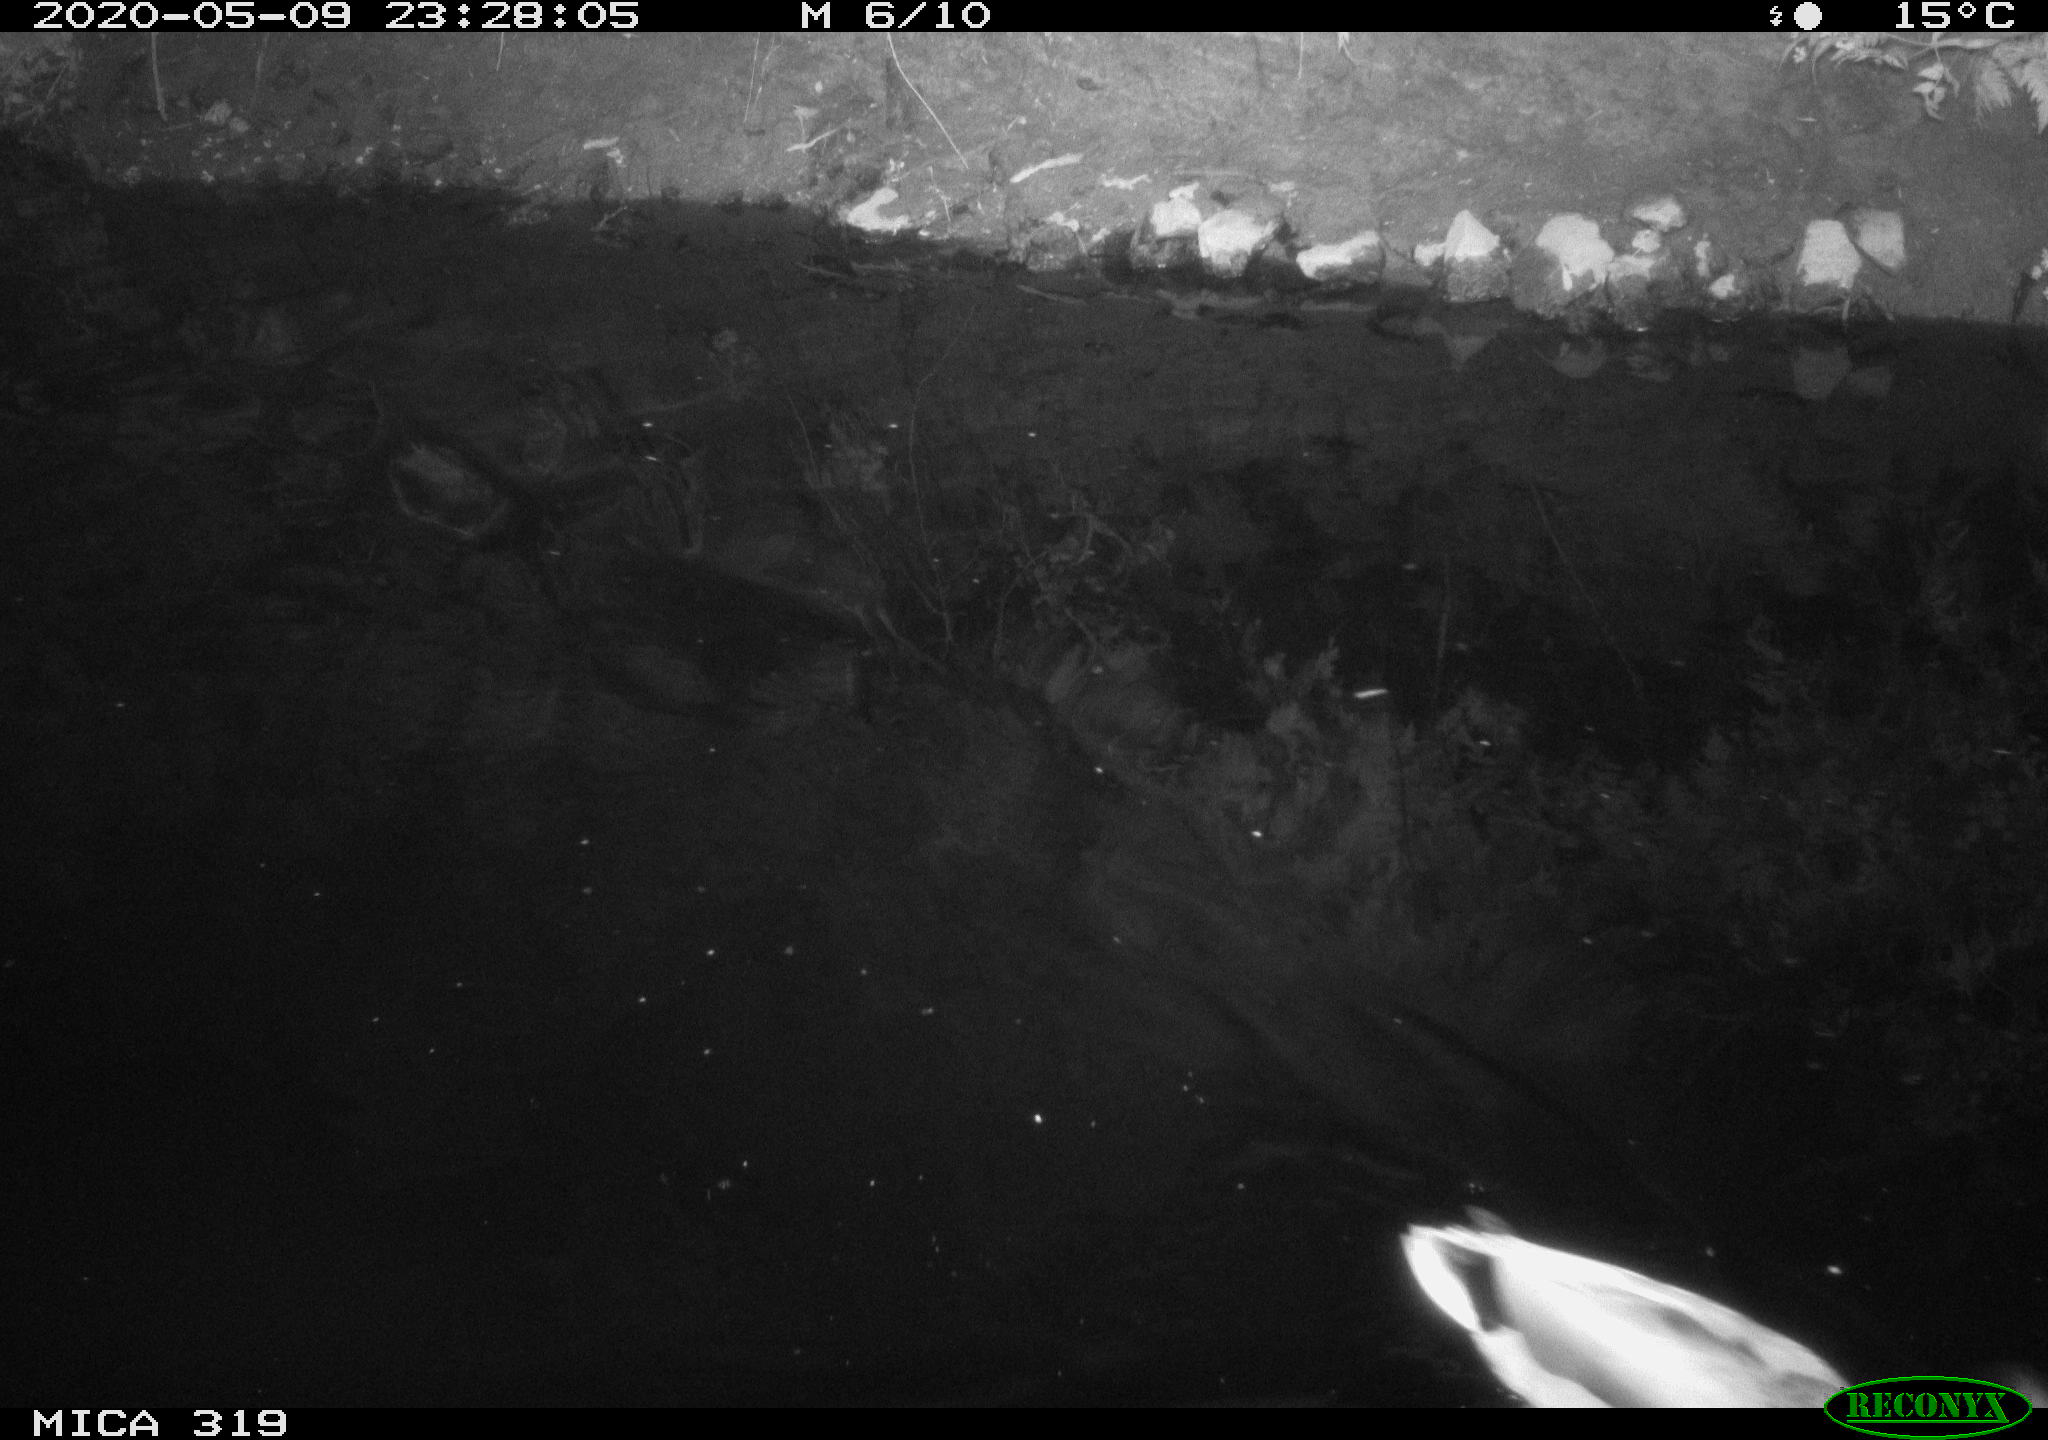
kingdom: Animalia
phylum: Chordata
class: Aves
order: Anseriformes
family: Anatidae
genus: Anas
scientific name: Anas platyrhynchos
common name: Mallard
